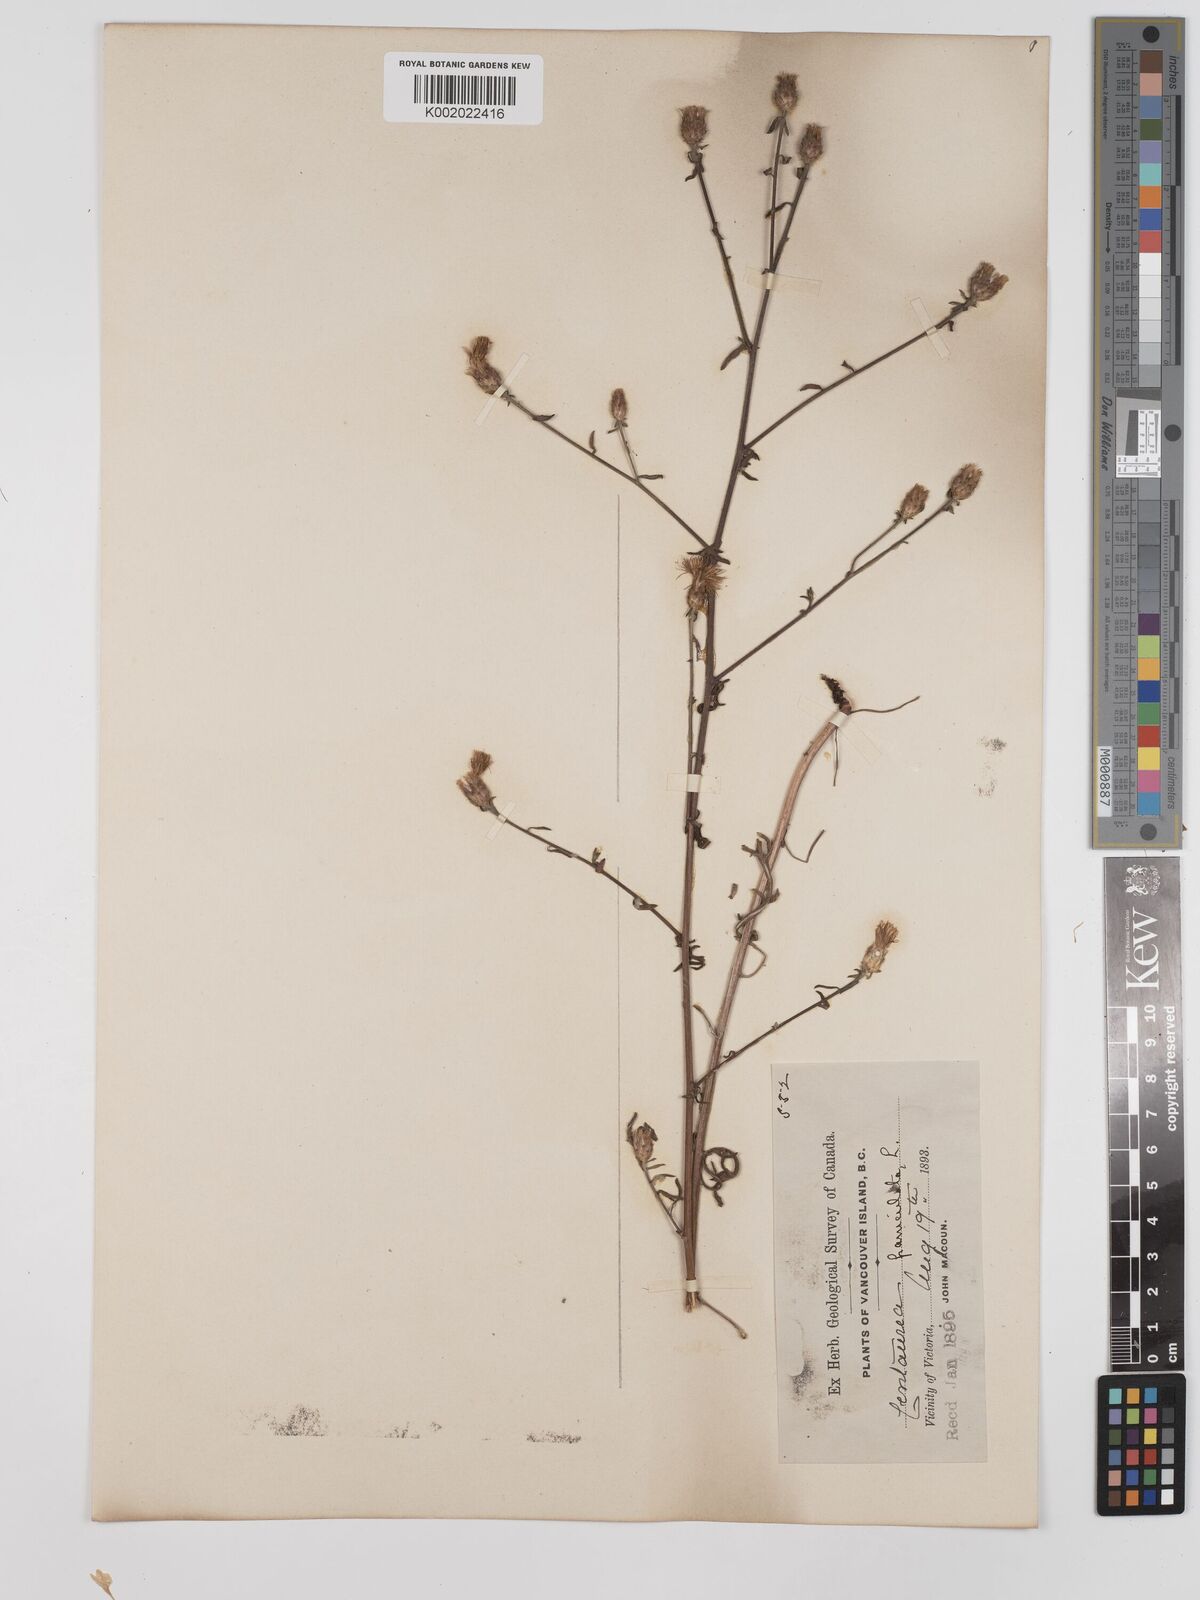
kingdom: Plantae
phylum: Tracheophyta
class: Magnoliopsida
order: Asterales
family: Asteraceae
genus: Centaurea
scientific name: Centaurea paniculata
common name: Jersey knapweed
